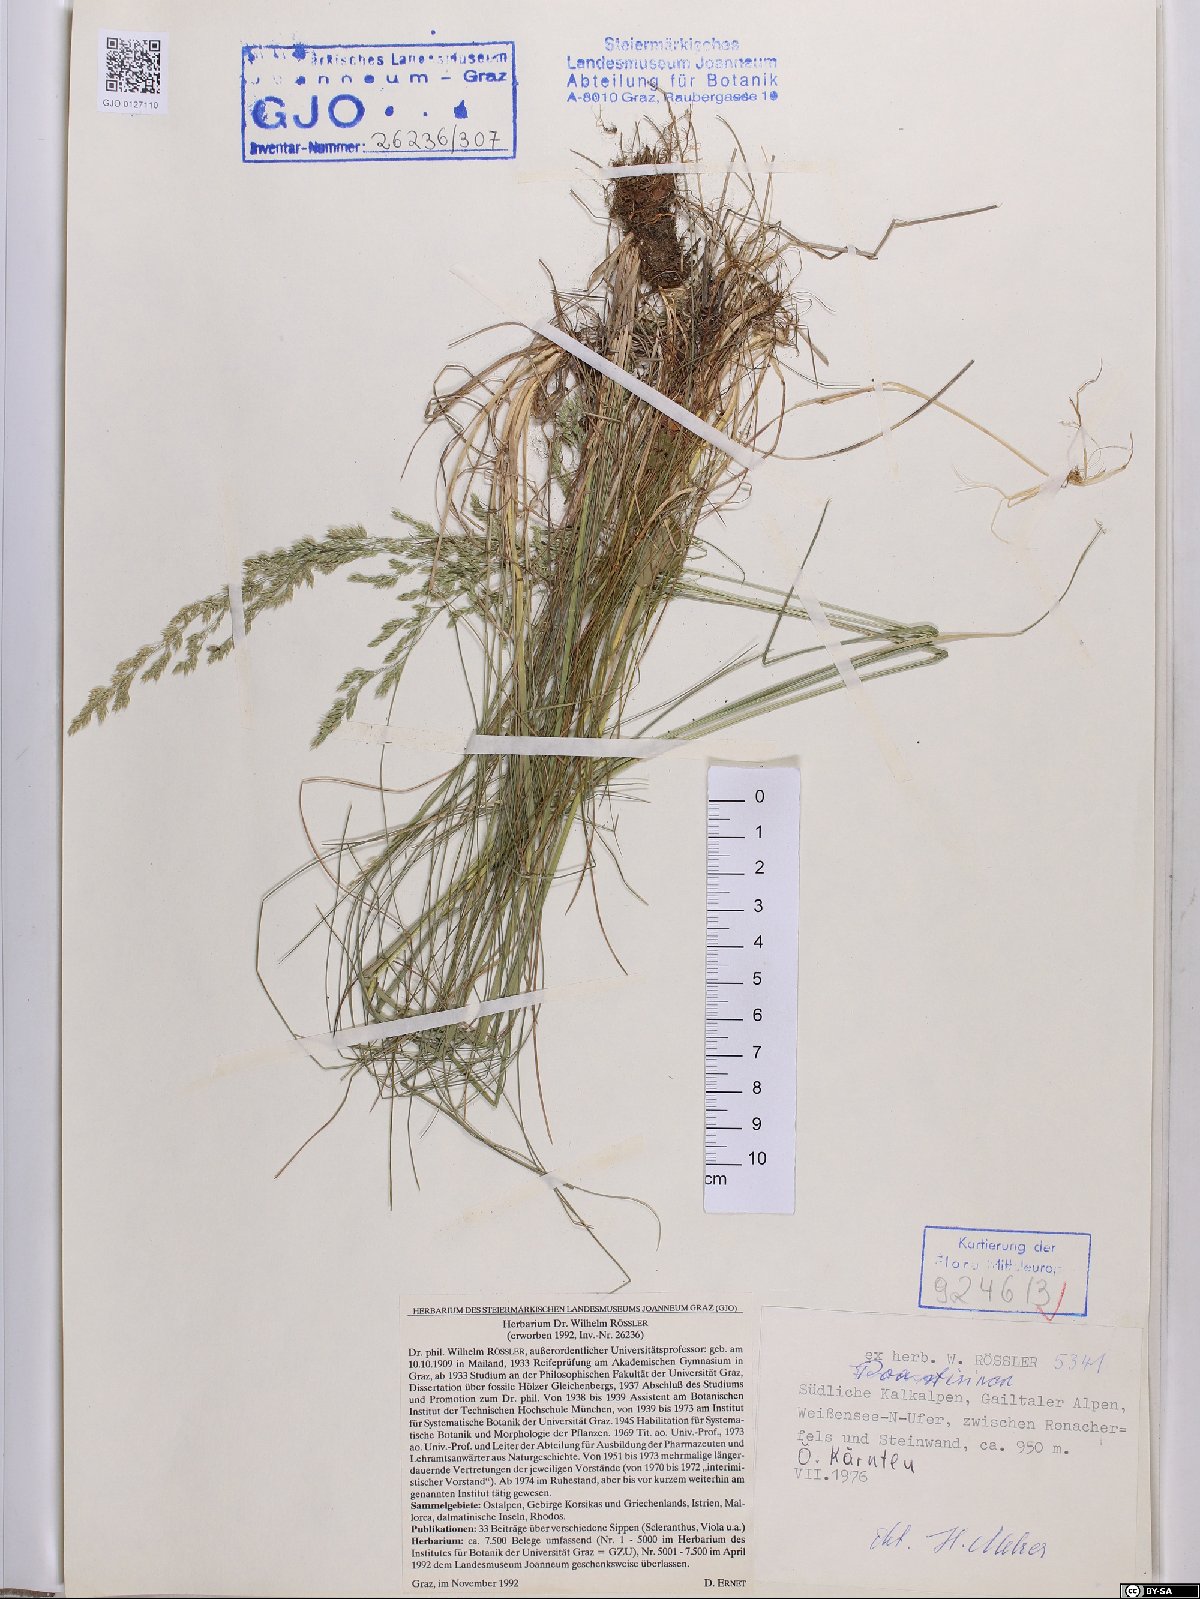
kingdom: Plantae
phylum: Tracheophyta
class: Liliopsida
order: Poales
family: Poaceae
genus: Poa
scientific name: Poa stiriaca
